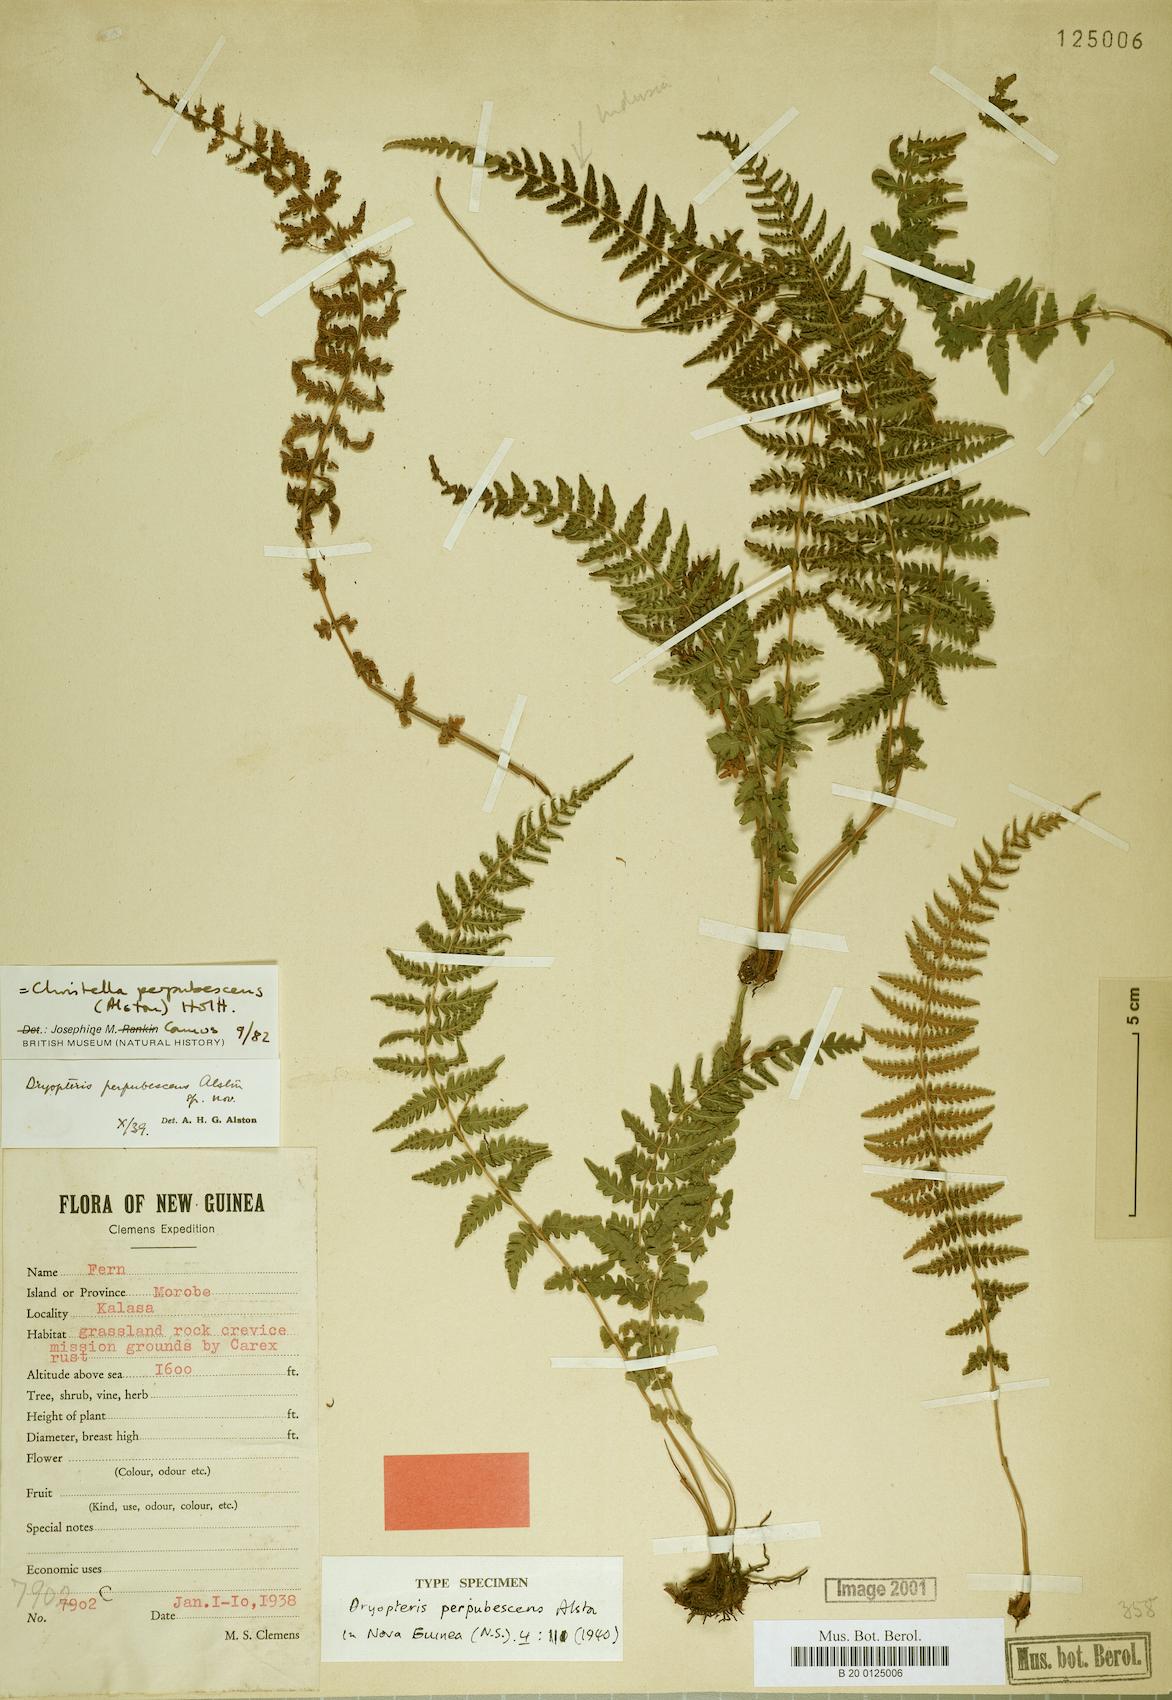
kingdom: Plantae
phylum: Tracheophyta
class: Polypodiopsida
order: Polypodiales
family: Thelypteridaceae
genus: Christella
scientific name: Christella perpubescens
